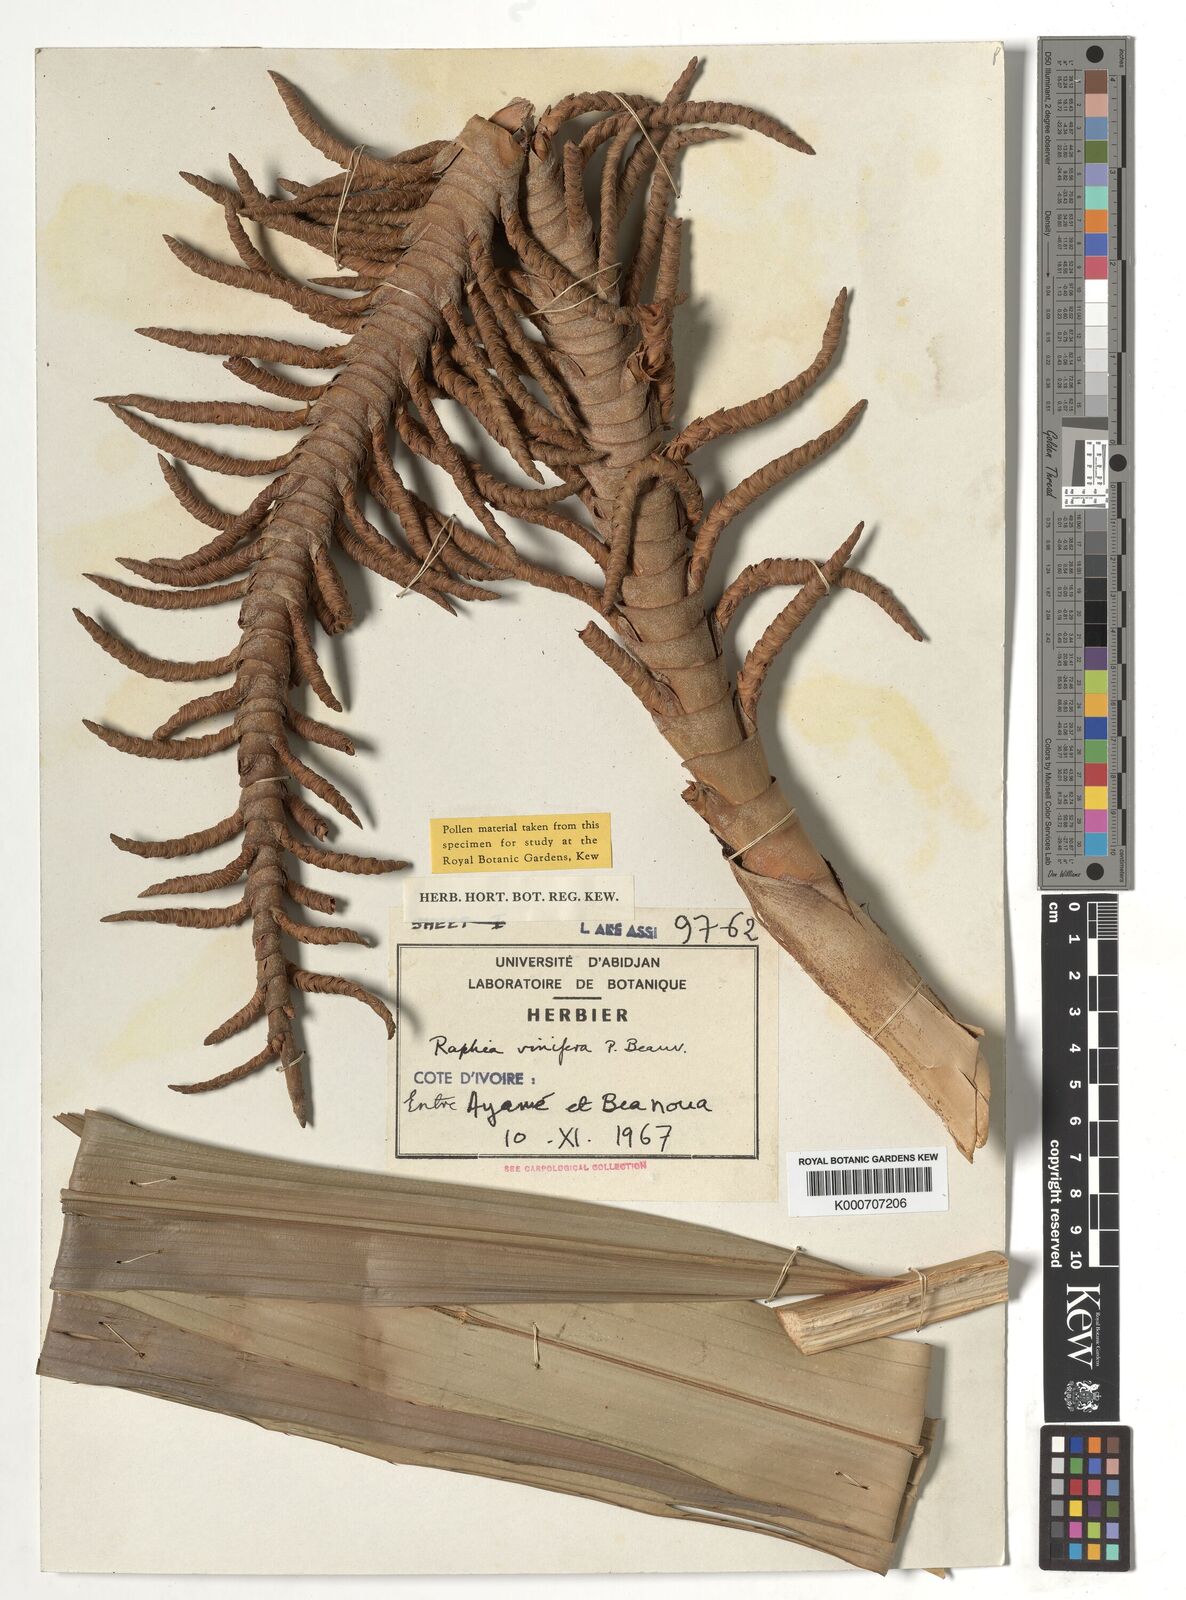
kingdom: Plantae
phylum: Tracheophyta
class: Liliopsida
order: Arecales
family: Arecaceae
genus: Raphia
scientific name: Raphia vinifera
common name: Raphia palm
